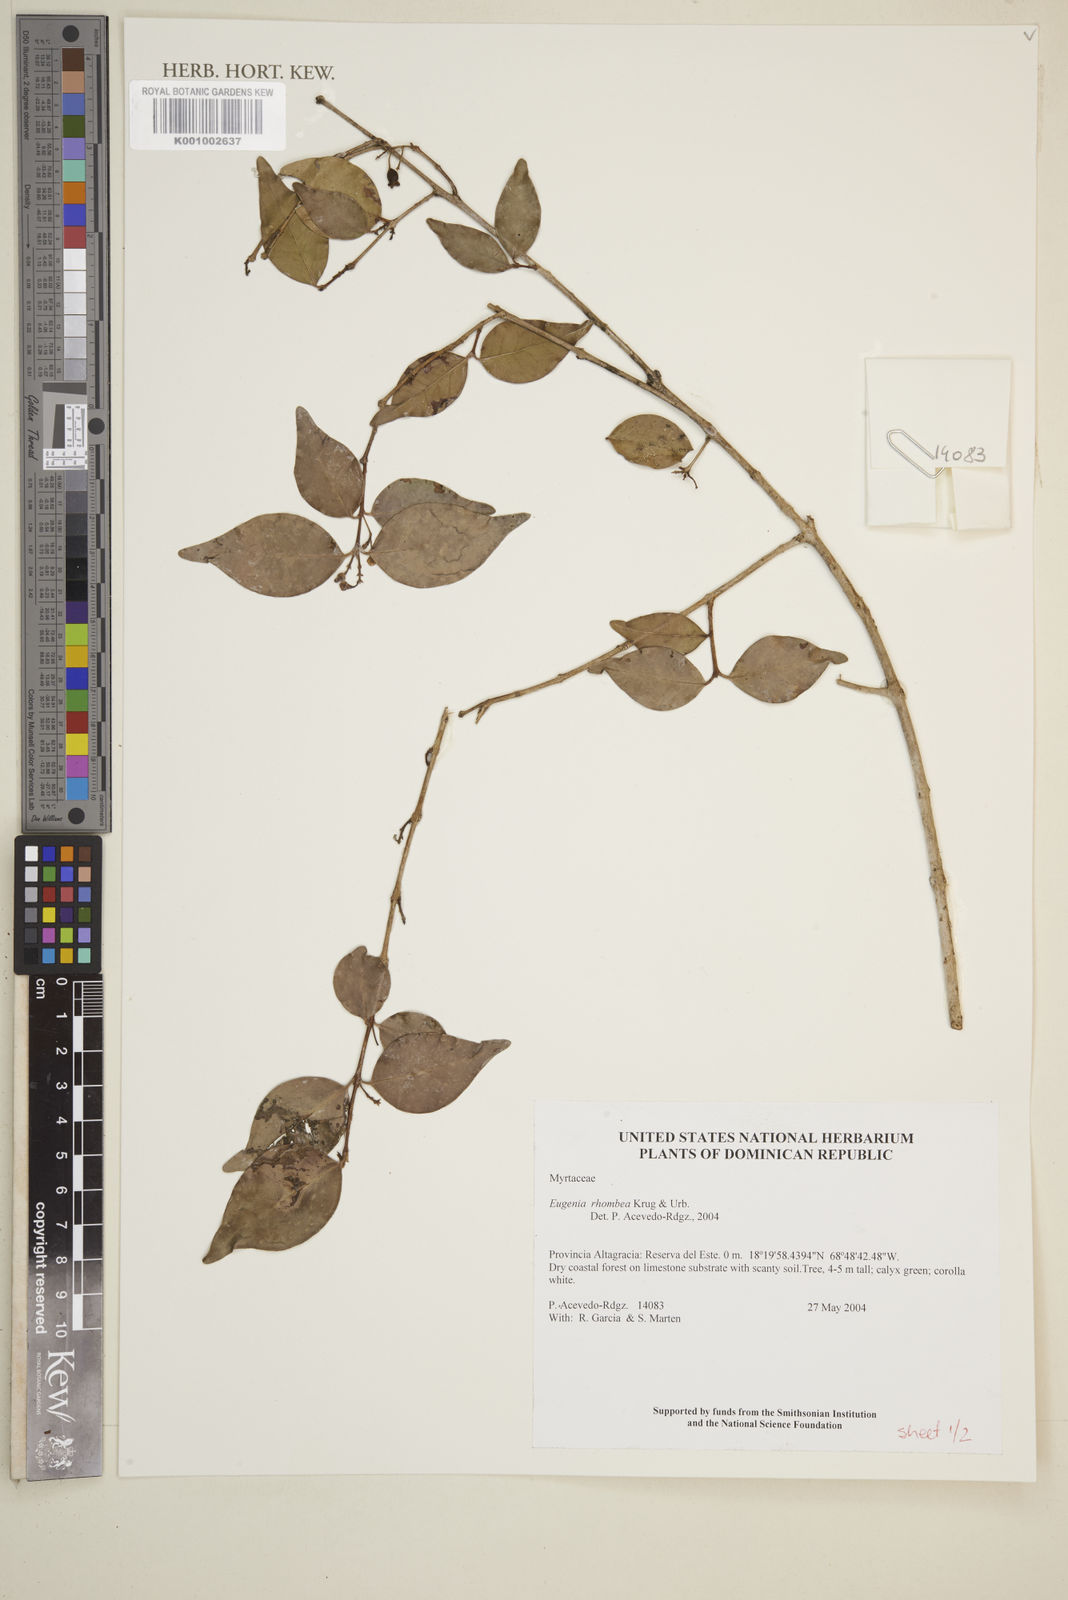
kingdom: Plantae
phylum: Tracheophyta
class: Magnoliopsida
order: Myrtales
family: Myrtaceae
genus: Eugenia
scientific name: Eugenia rhombea
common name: Pigeon berry
